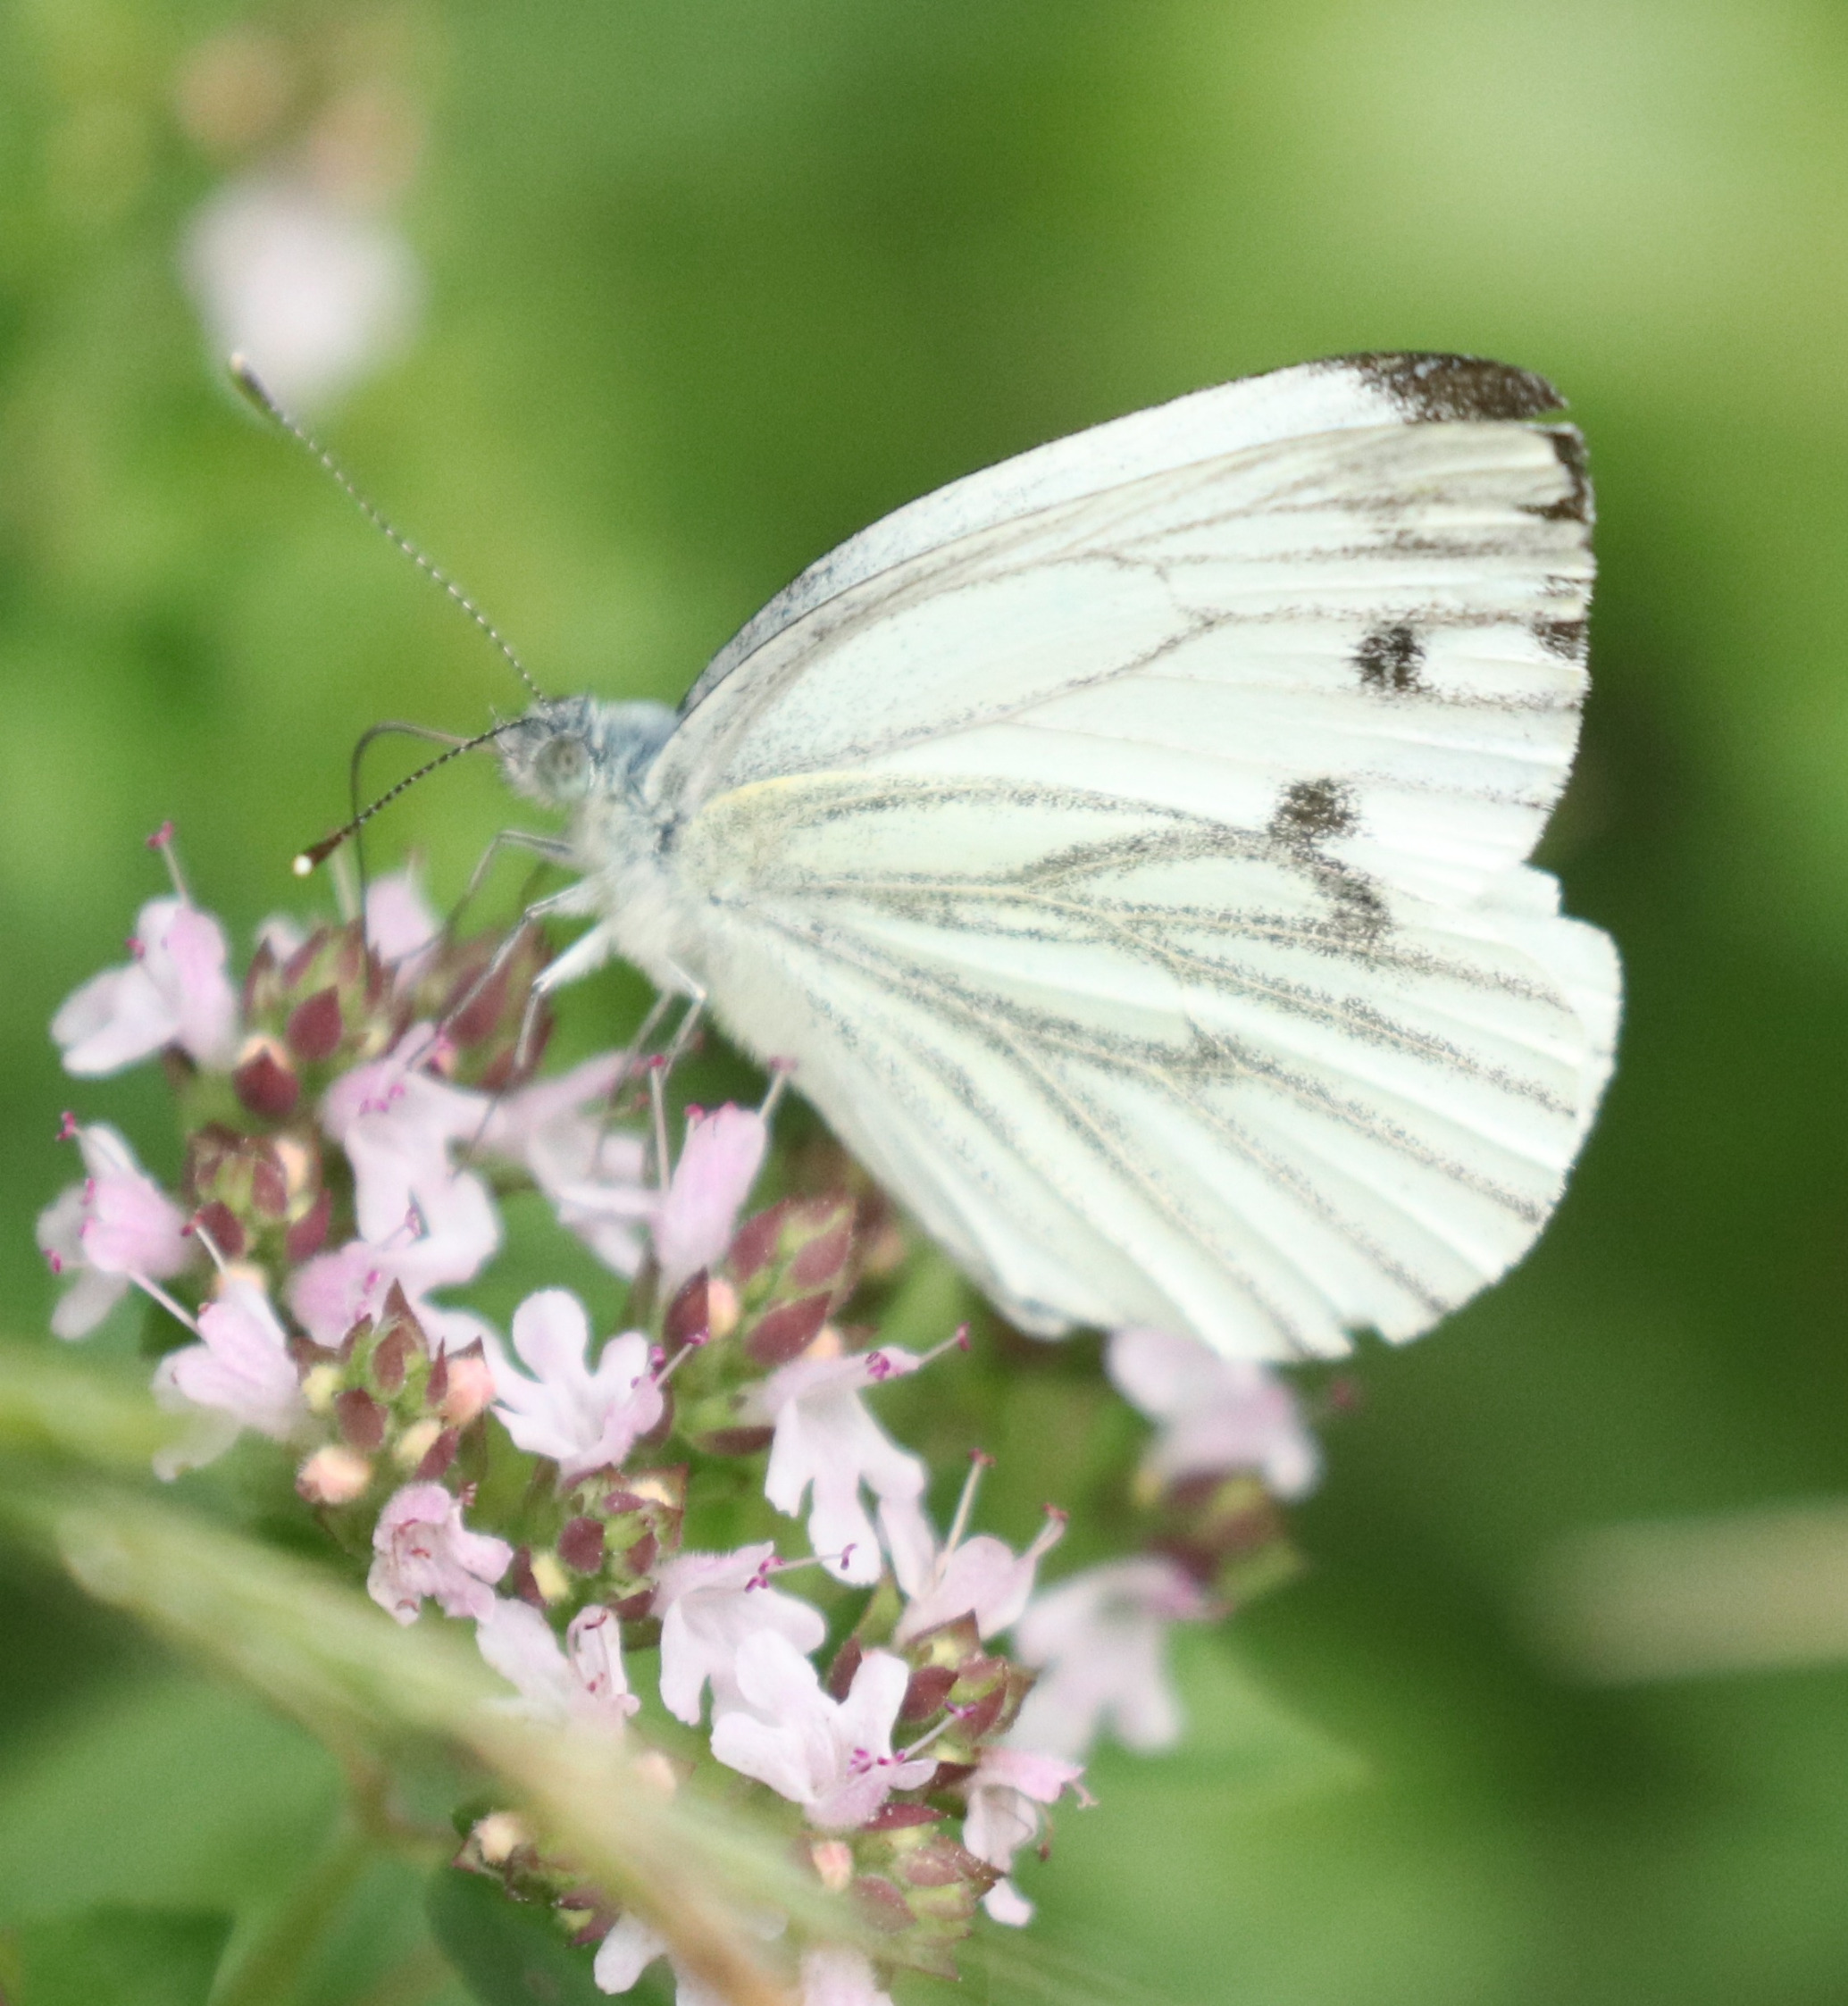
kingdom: Animalia
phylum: Arthropoda
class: Insecta
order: Lepidoptera
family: Pieridae
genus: Pieris
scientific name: Pieris napi
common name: Grønåret kålsommerfugl
